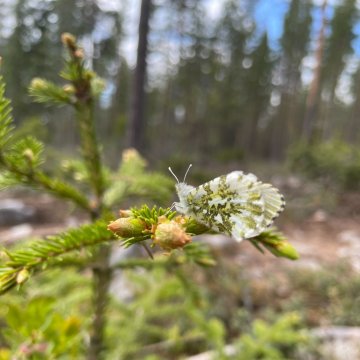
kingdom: Animalia
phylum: Arthropoda
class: Insecta
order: Lepidoptera
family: Pieridae
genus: Anthocharis
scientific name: Anthocharis cardamines
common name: Orange Tip
